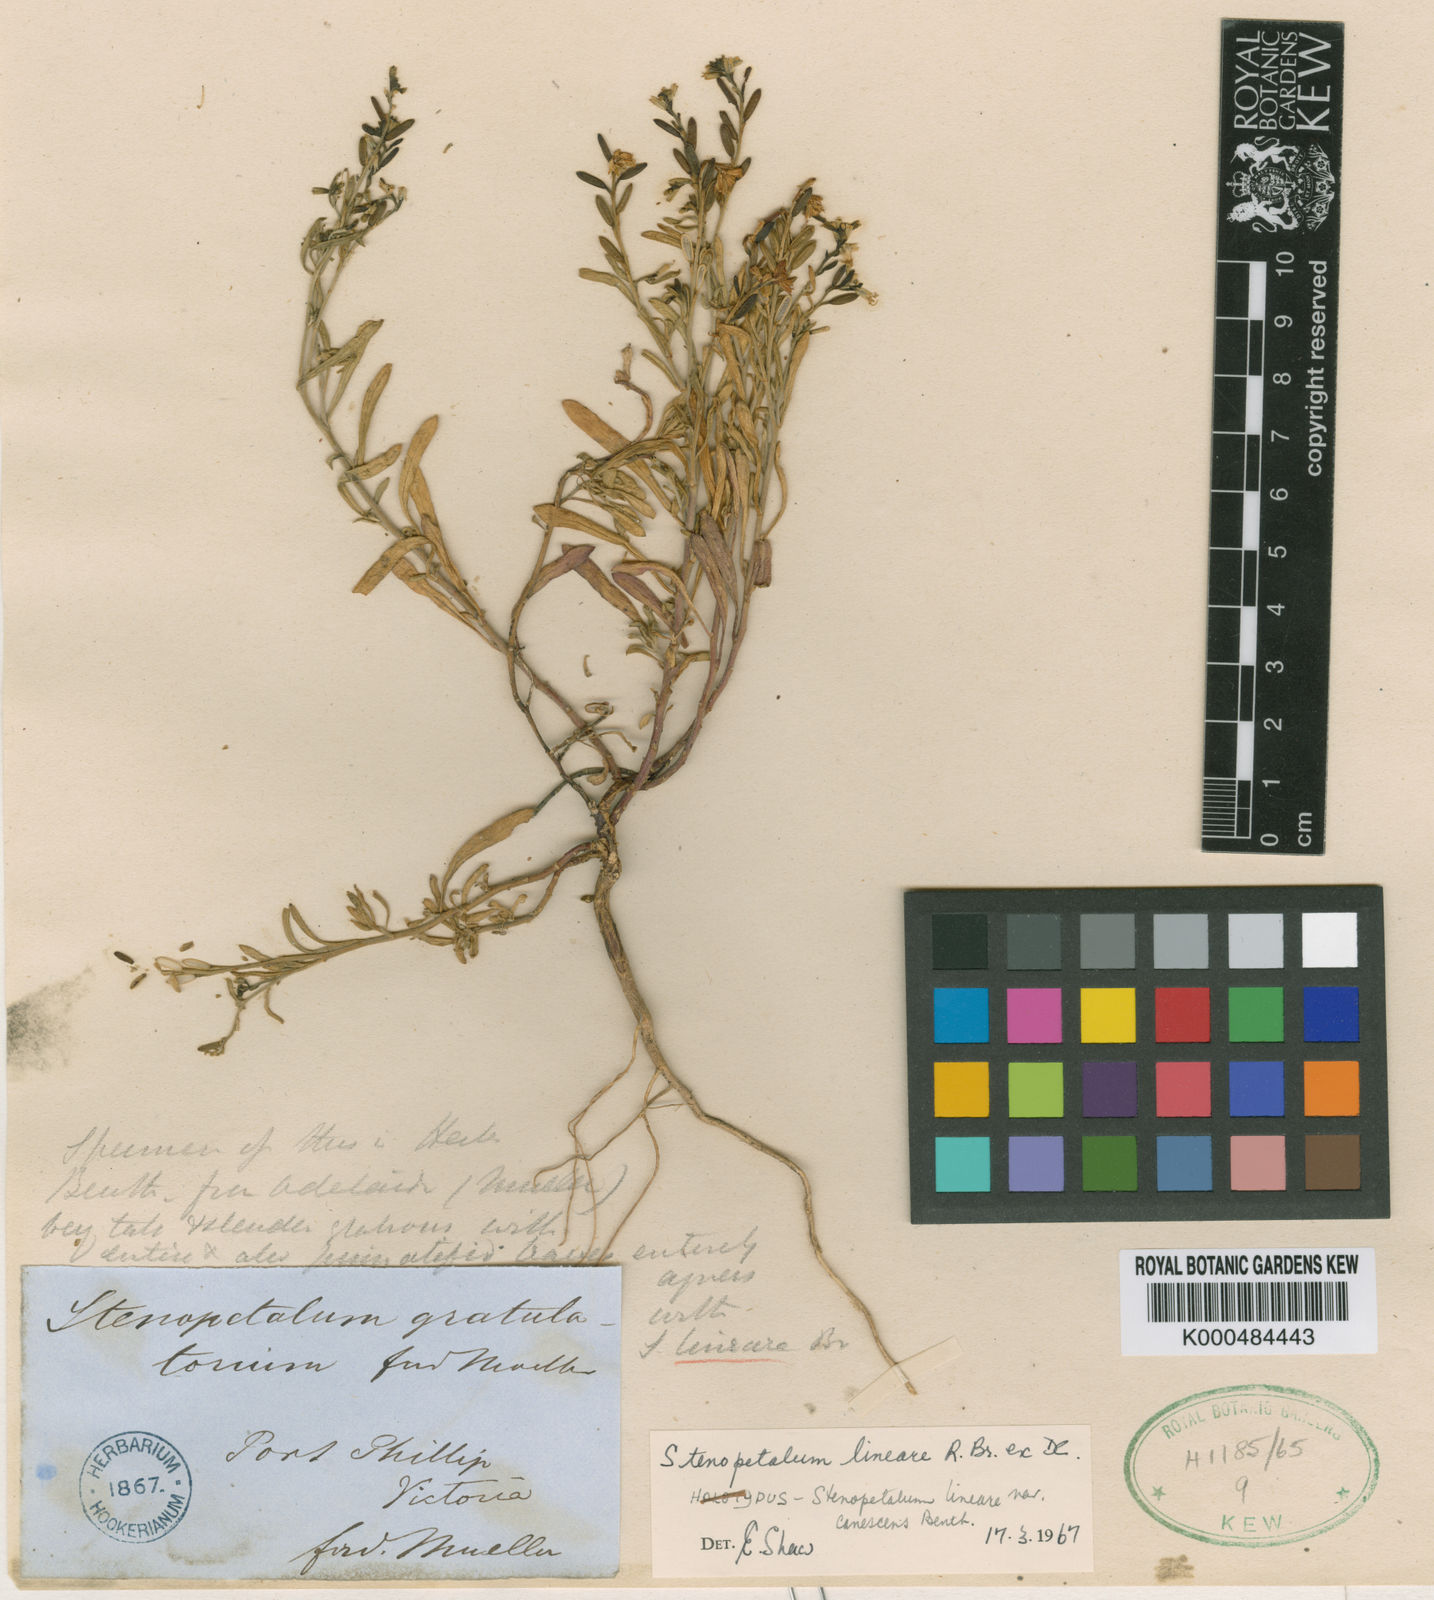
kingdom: Plantae
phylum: Tracheophyta
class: Magnoliopsida
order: Brassicales
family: Brassicaceae
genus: Stenopetalum
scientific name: Stenopetalum lineare
